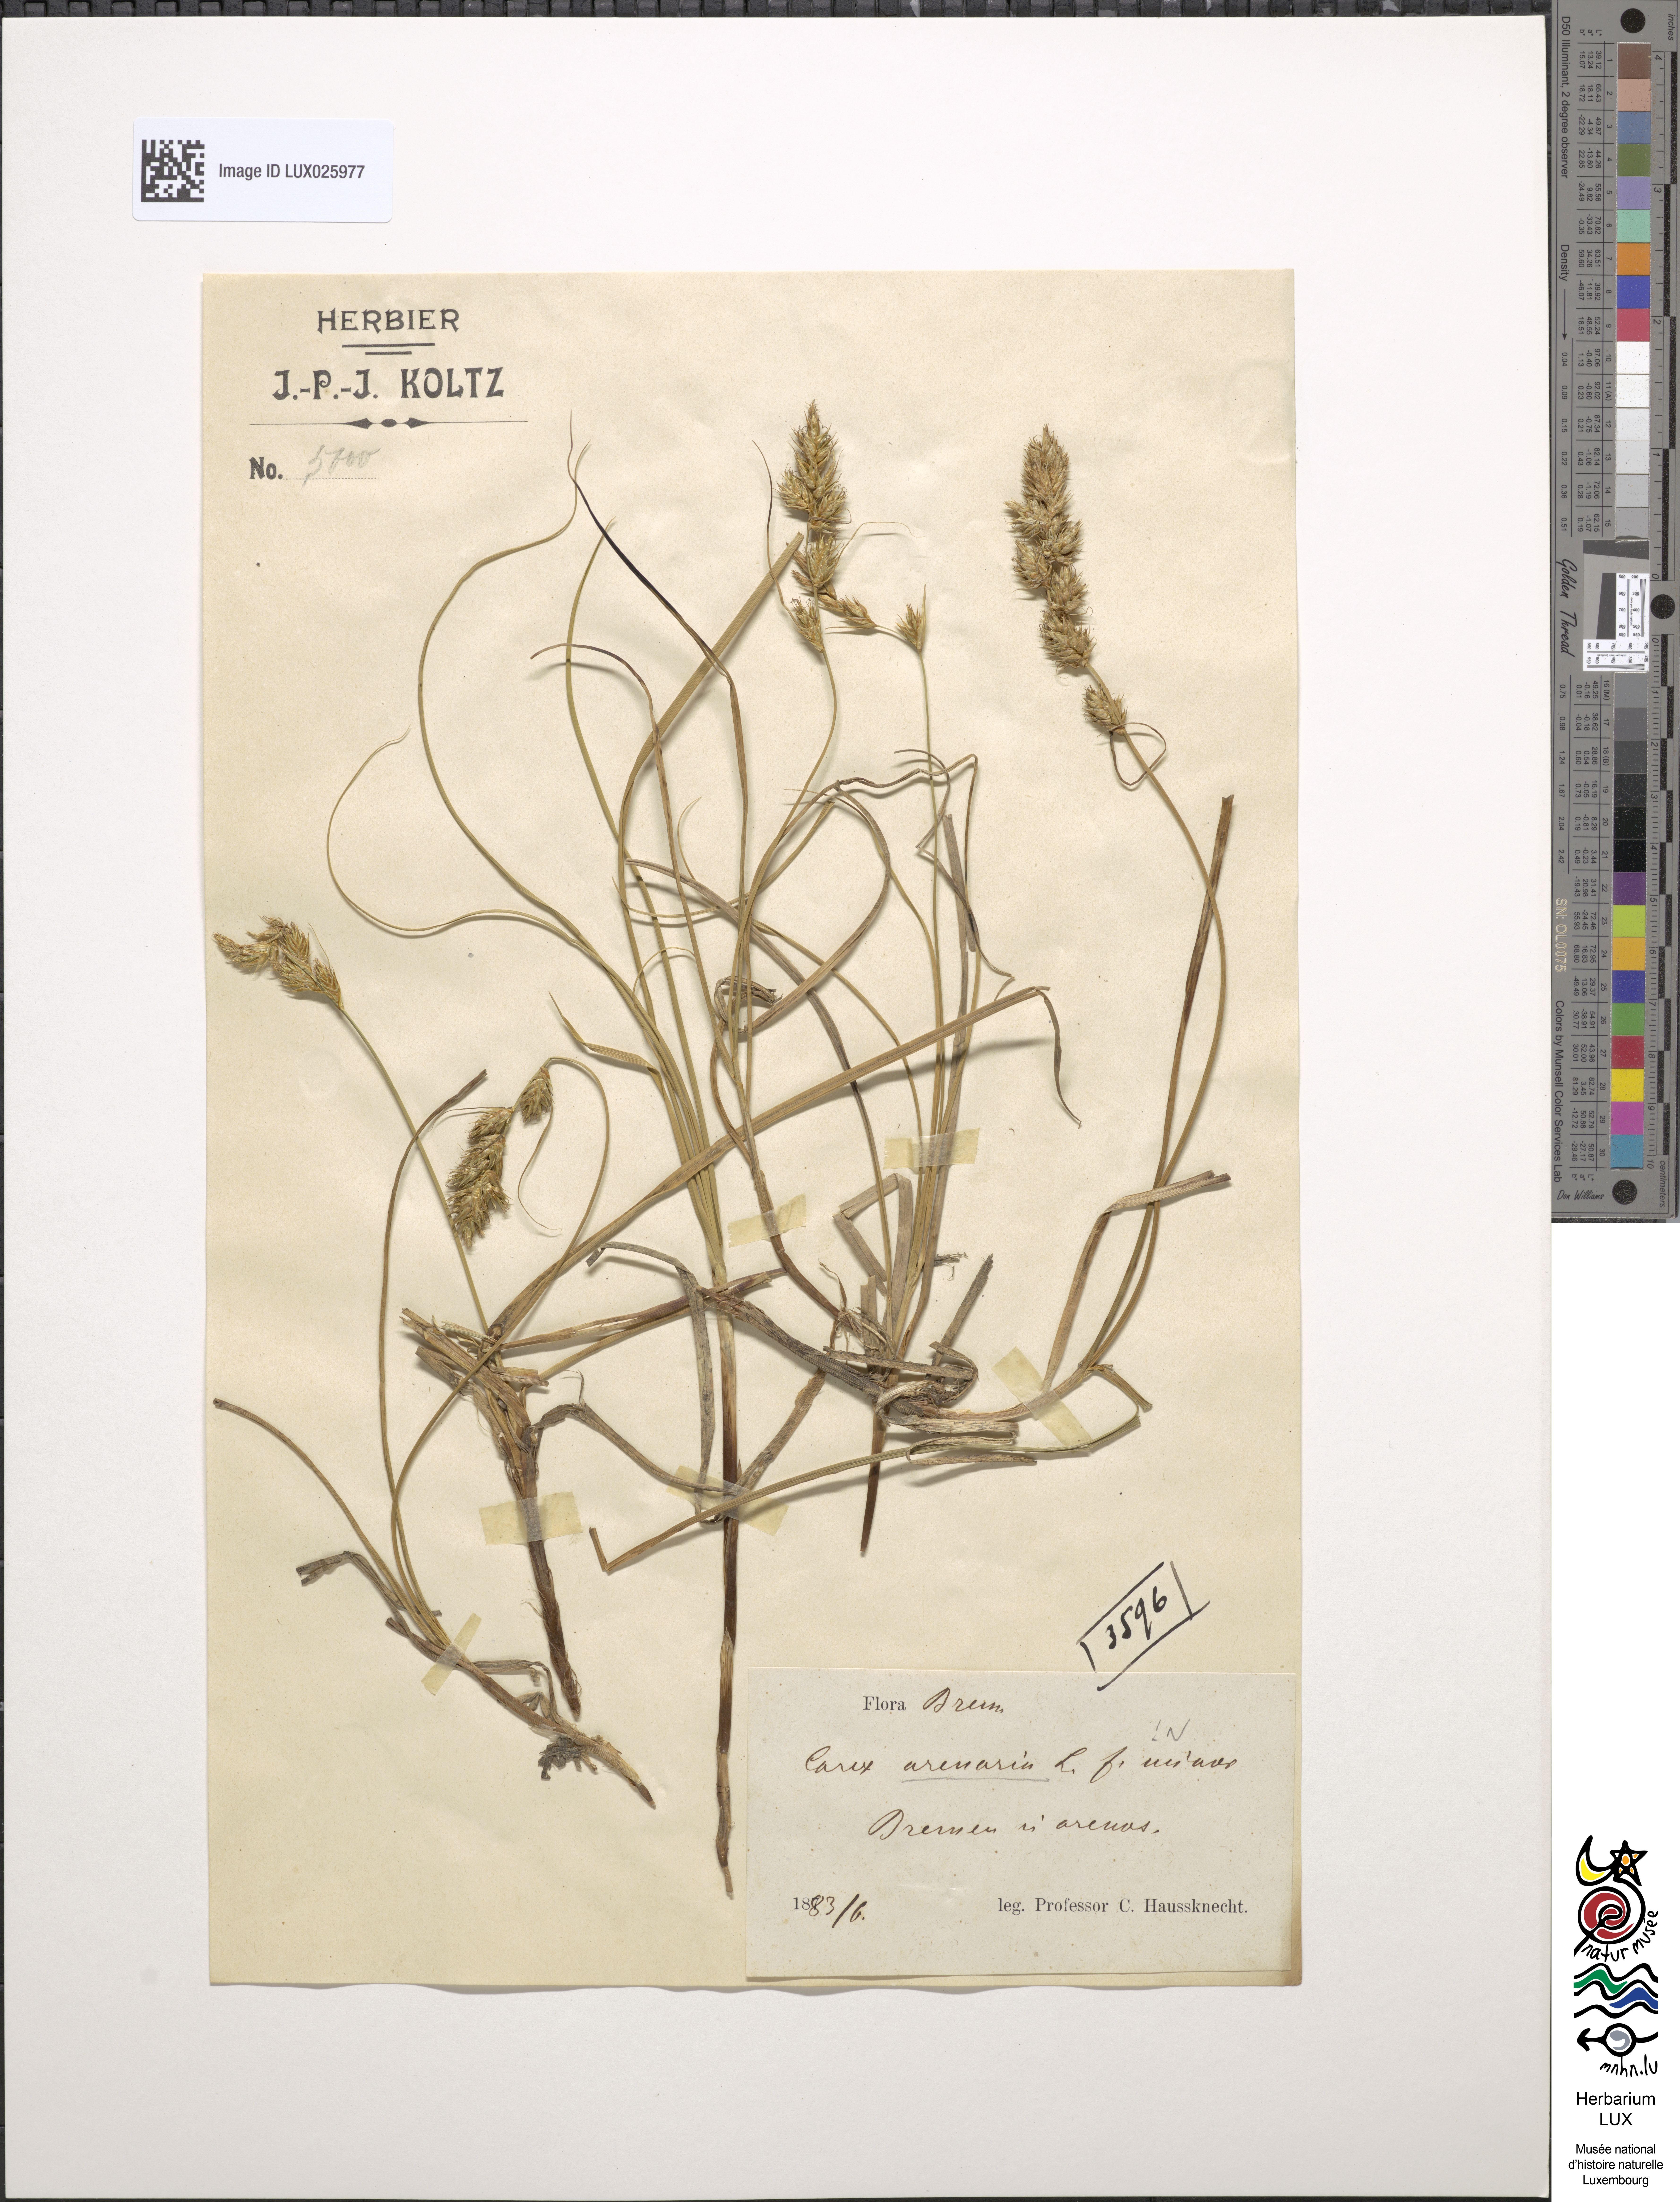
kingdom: Plantae
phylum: Tracheophyta
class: Liliopsida
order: Poales
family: Cyperaceae
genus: Carex
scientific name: Carex arenaria
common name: Sand sedge
